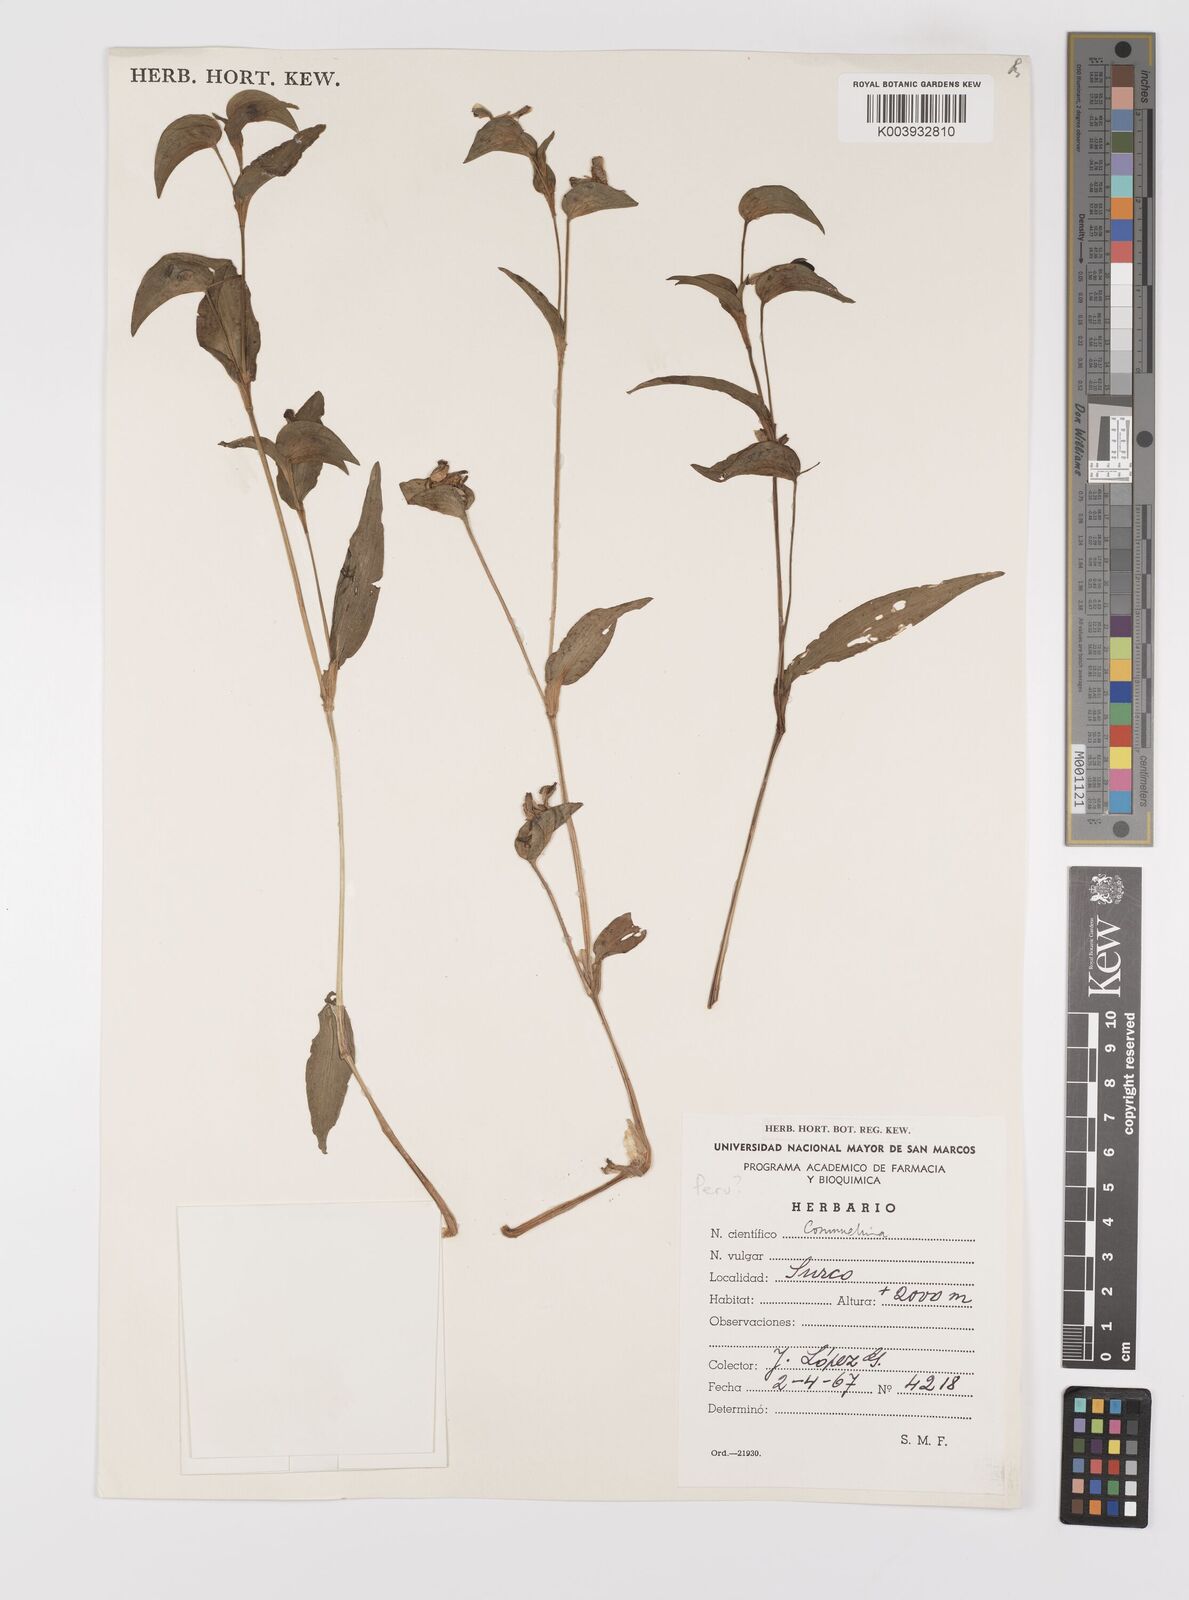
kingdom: Plantae
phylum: Tracheophyta
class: Liliopsida
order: Commelinales
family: Commelinaceae
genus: Commelina
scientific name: Commelina
